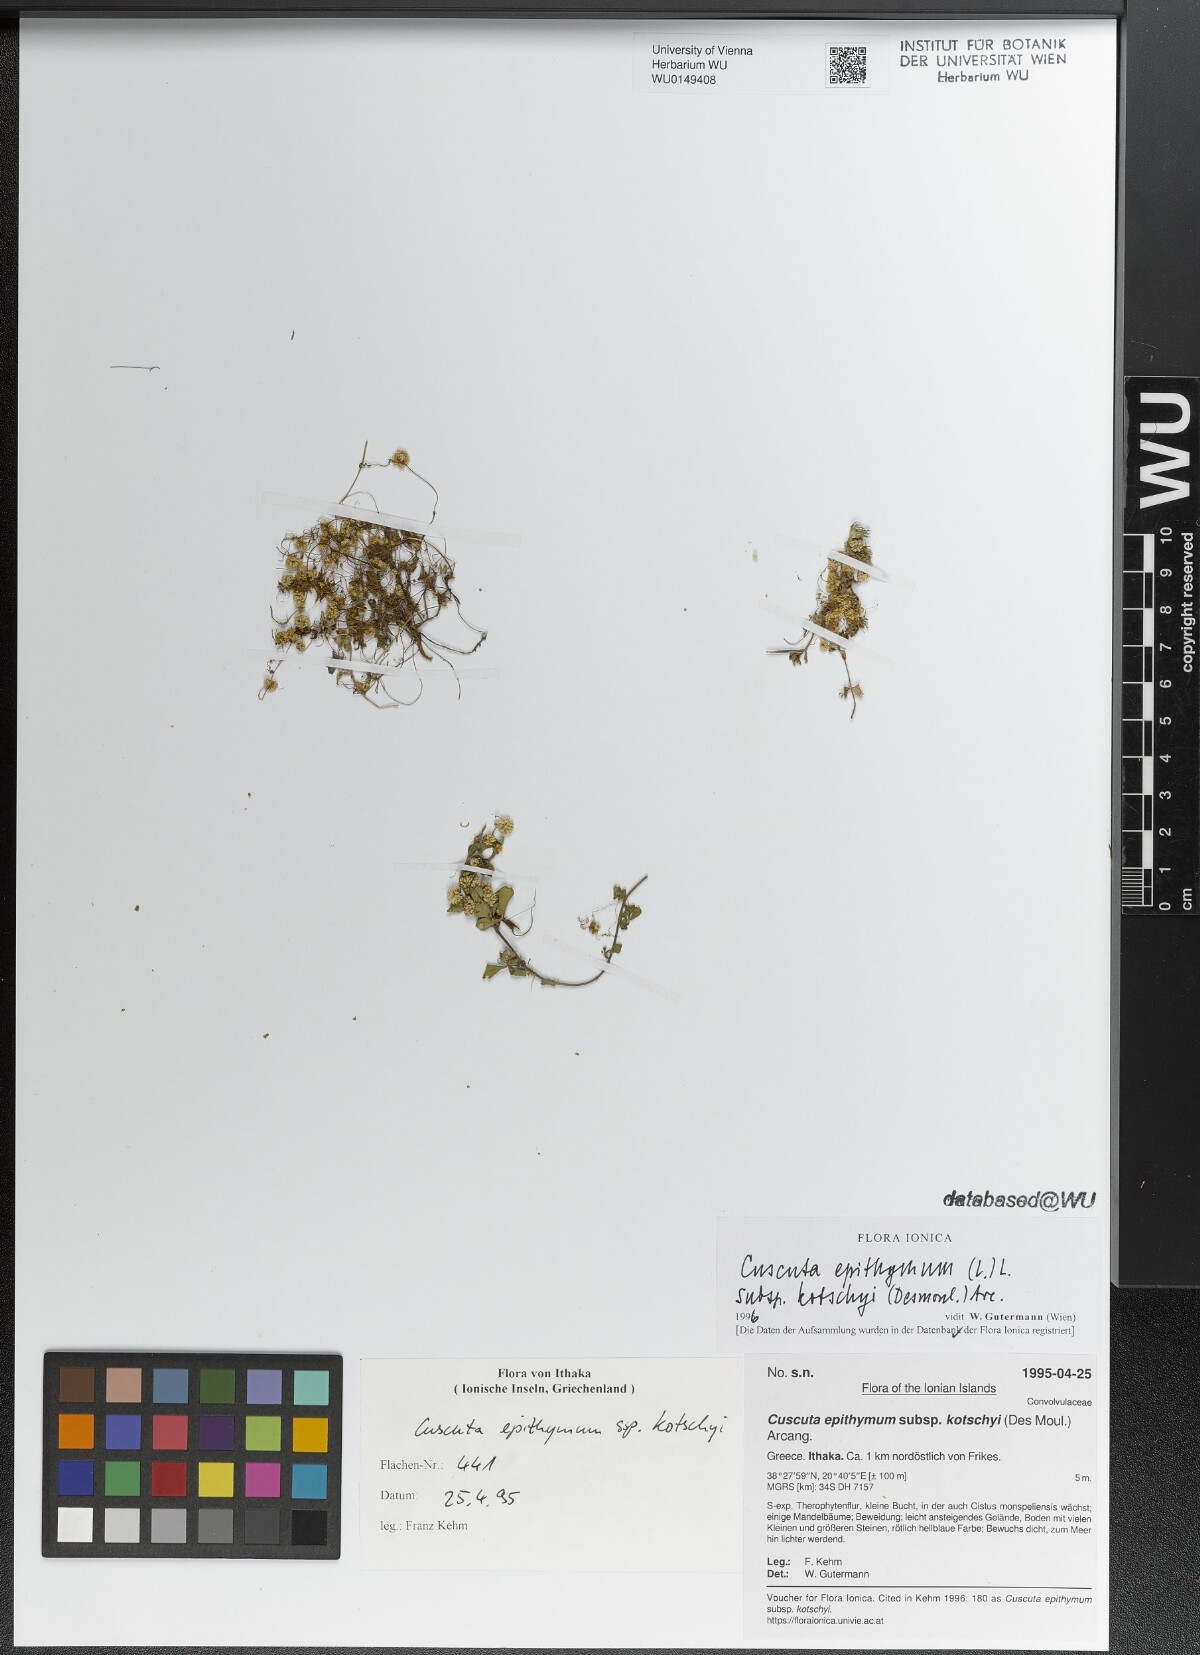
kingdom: Plantae
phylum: Tracheophyta
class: Magnoliopsida
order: Solanales
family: Convolvulaceae
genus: Cuscuta
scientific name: Cuscuta epithymum
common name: Clover dodder
